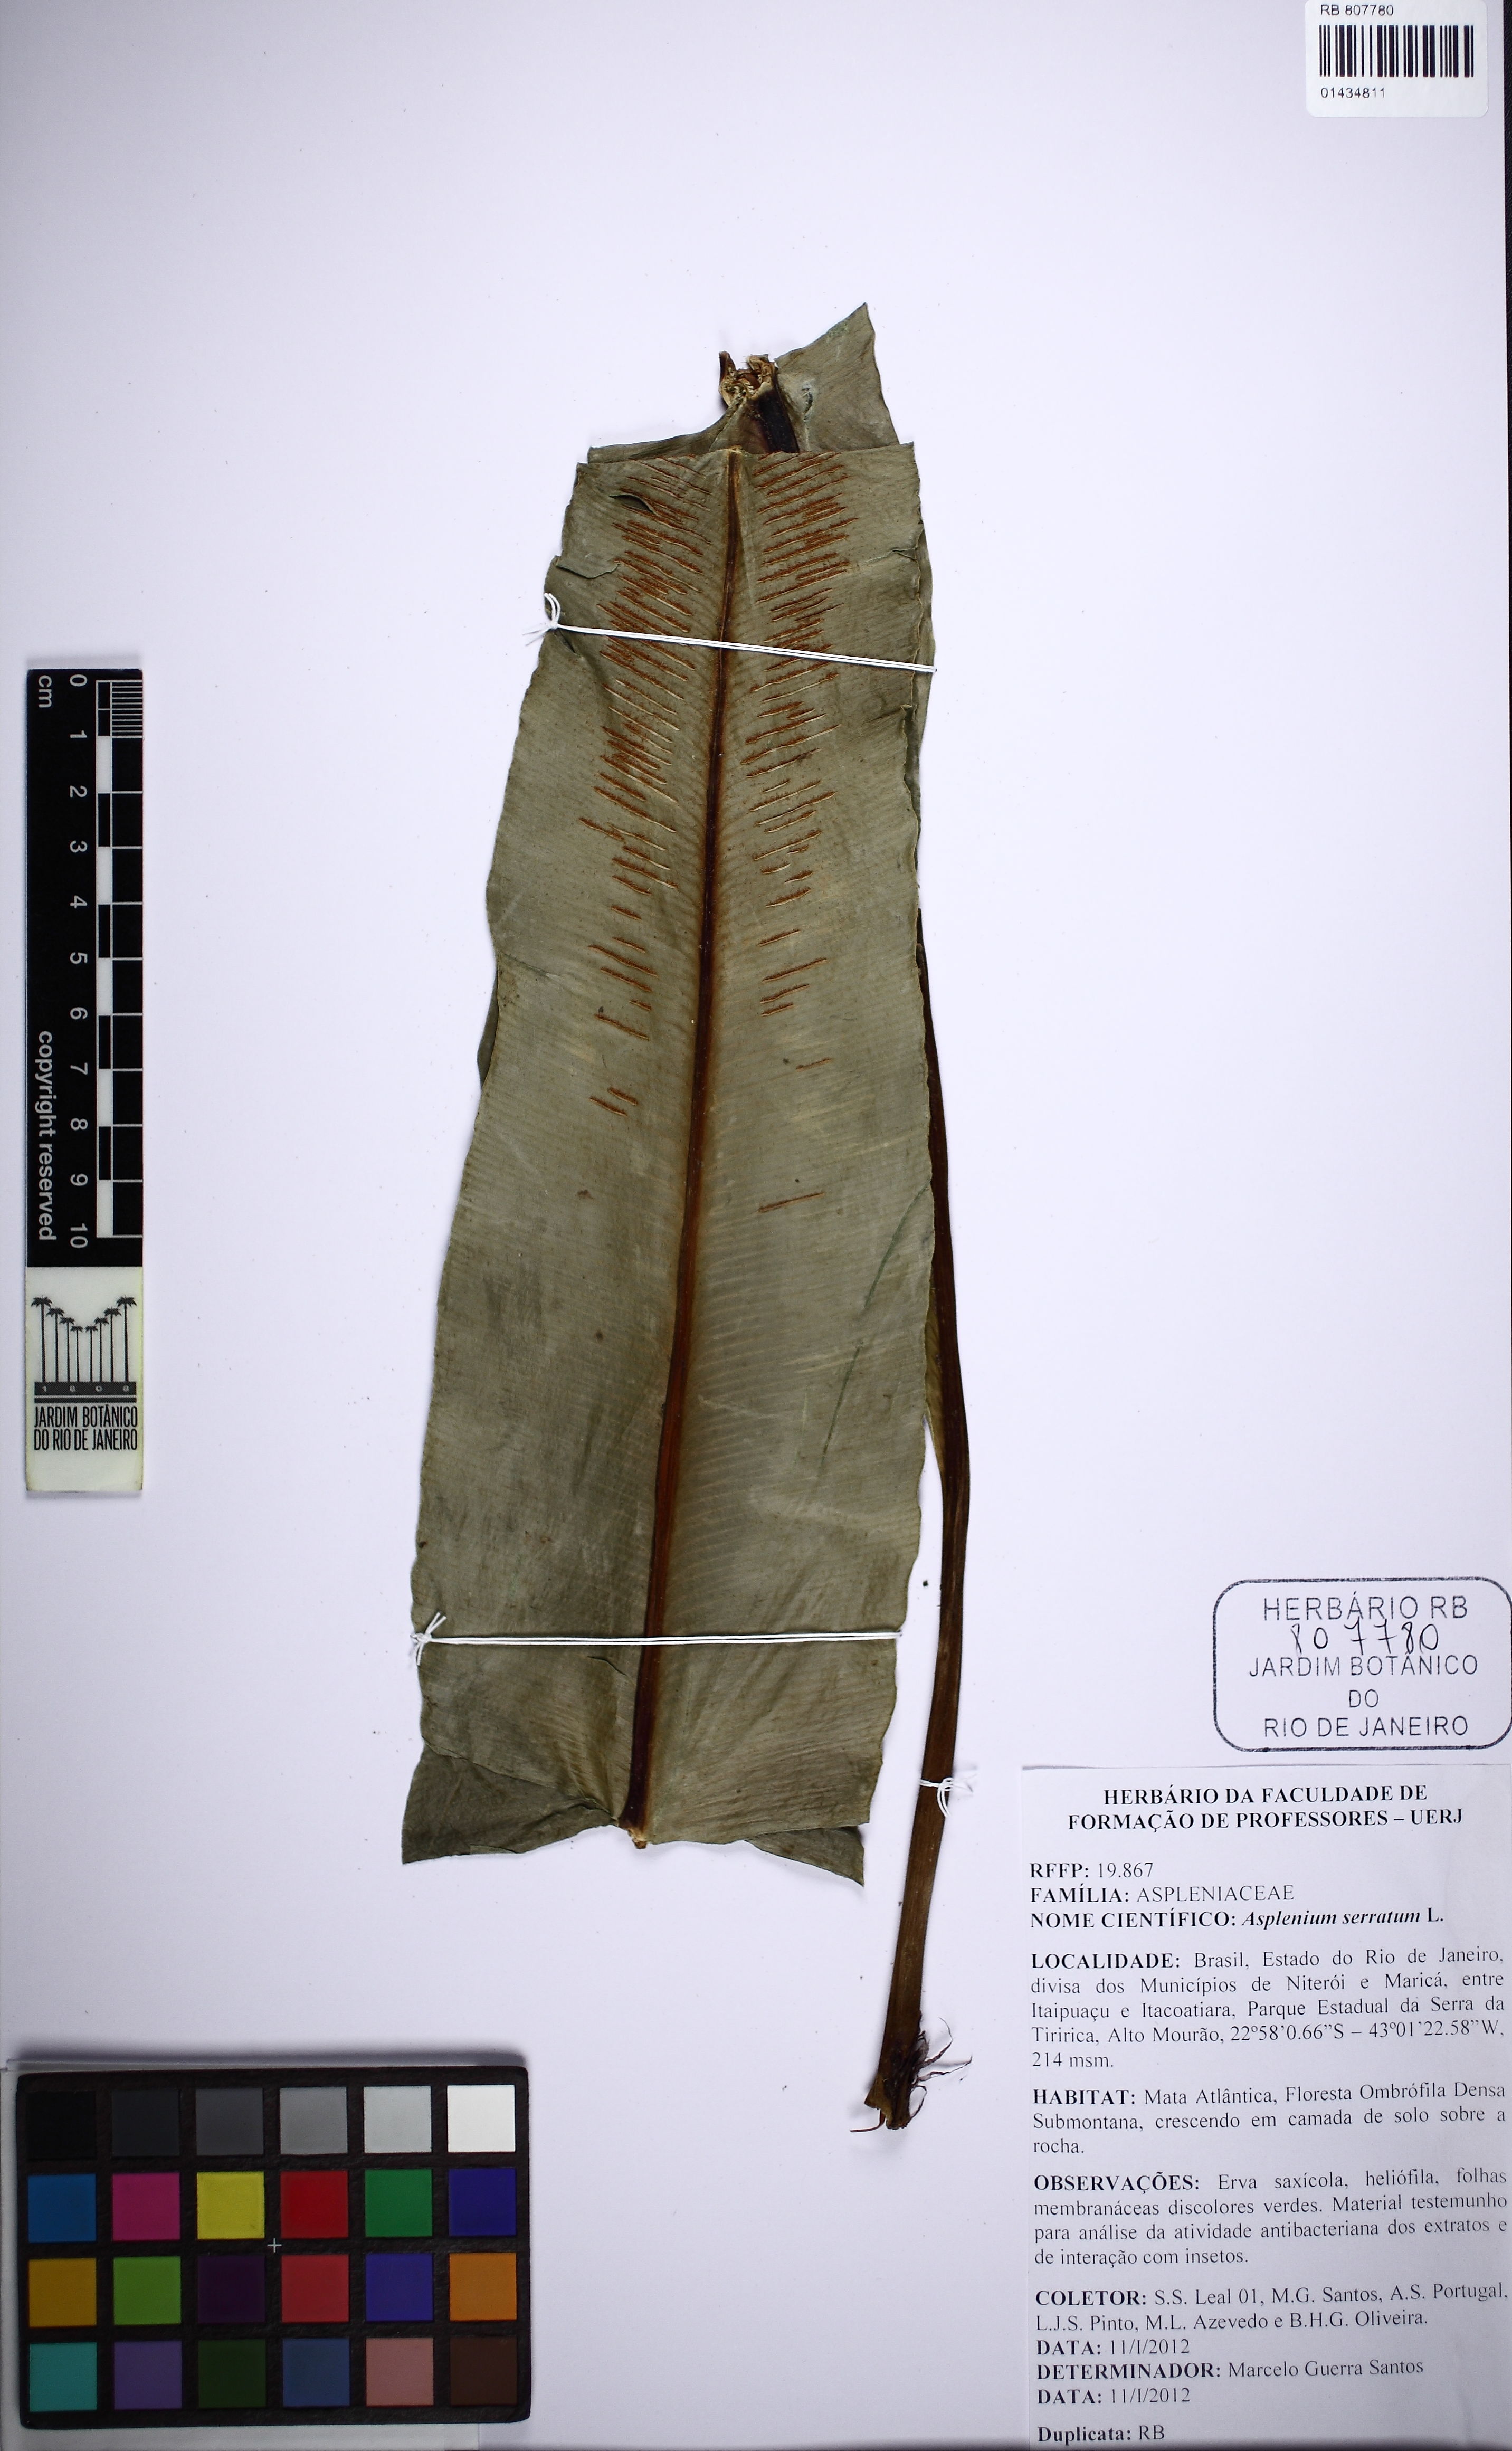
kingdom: Plantae
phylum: Tracheophyta
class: Polypodiopsida
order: Polypodiales
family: Aspleniaceae
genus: Asplenium
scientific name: Asplenium coronatum
